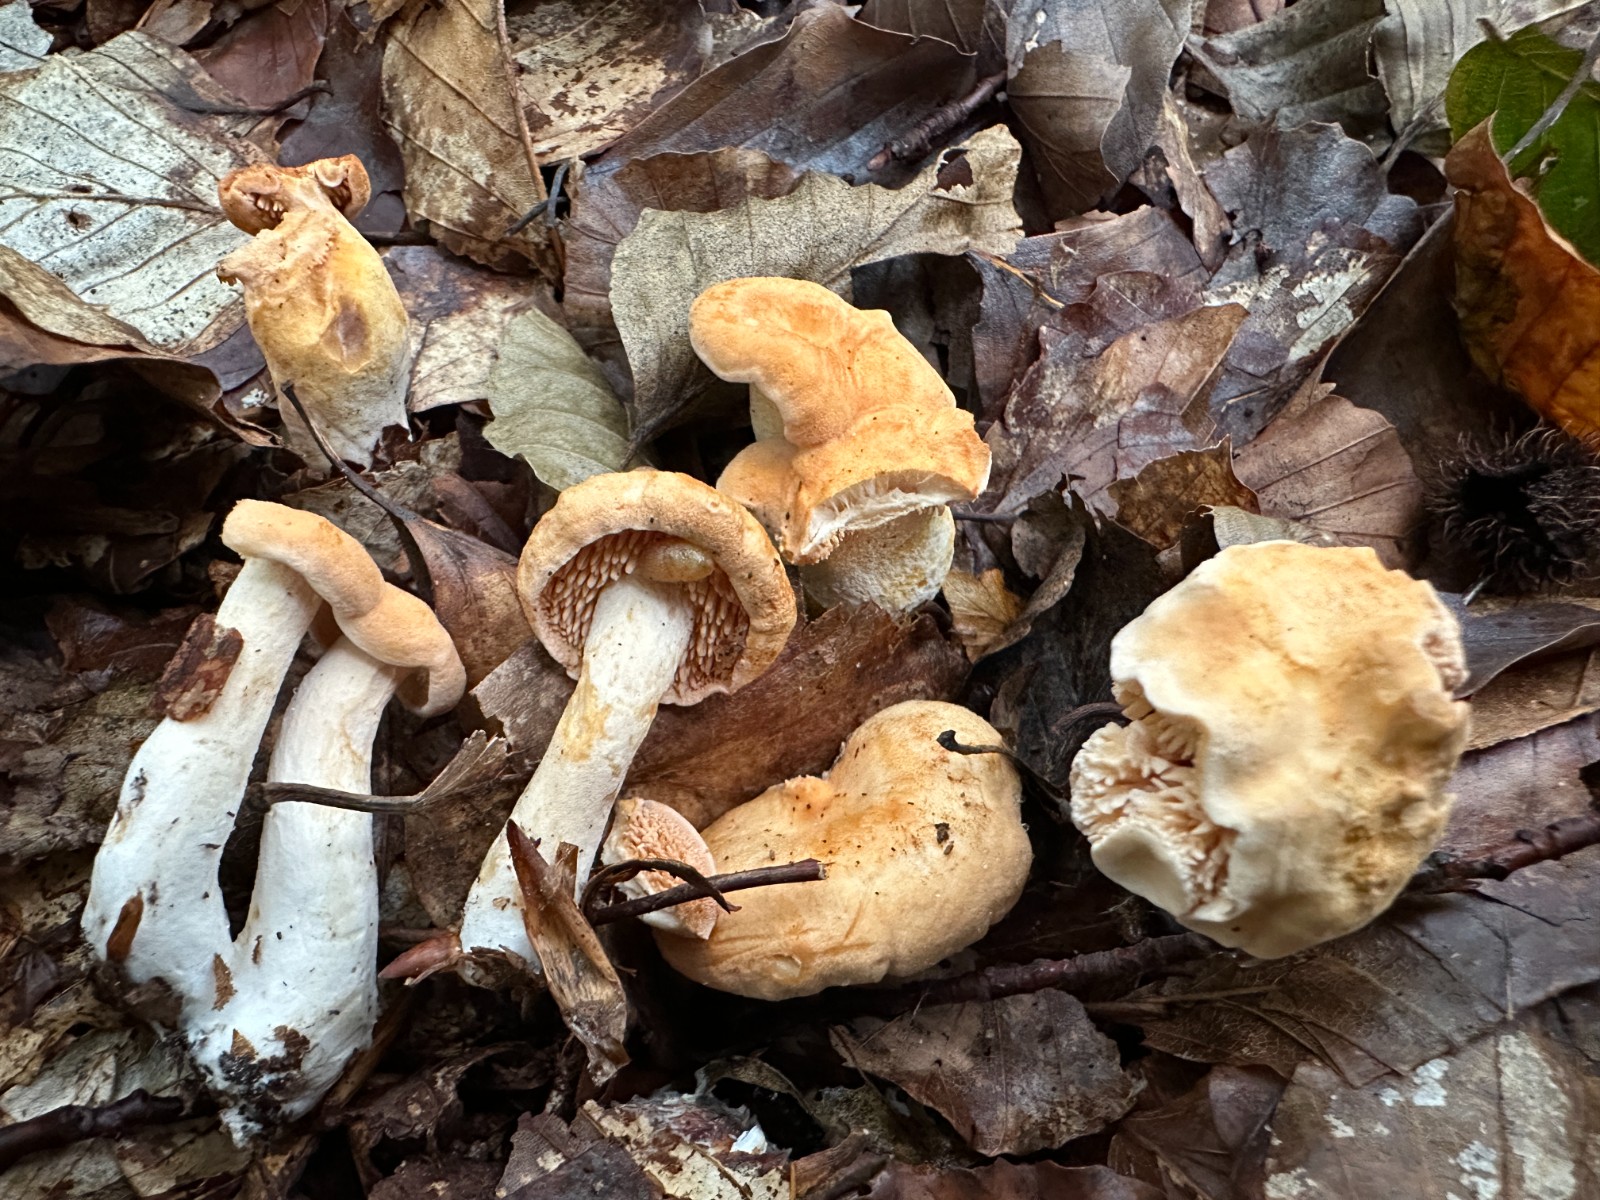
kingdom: Fungi
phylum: Basidiomycota
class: Agaricomycetes
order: Cantharellales
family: Hydnaceae
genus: Hydnum
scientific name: Hydnum rufescens
